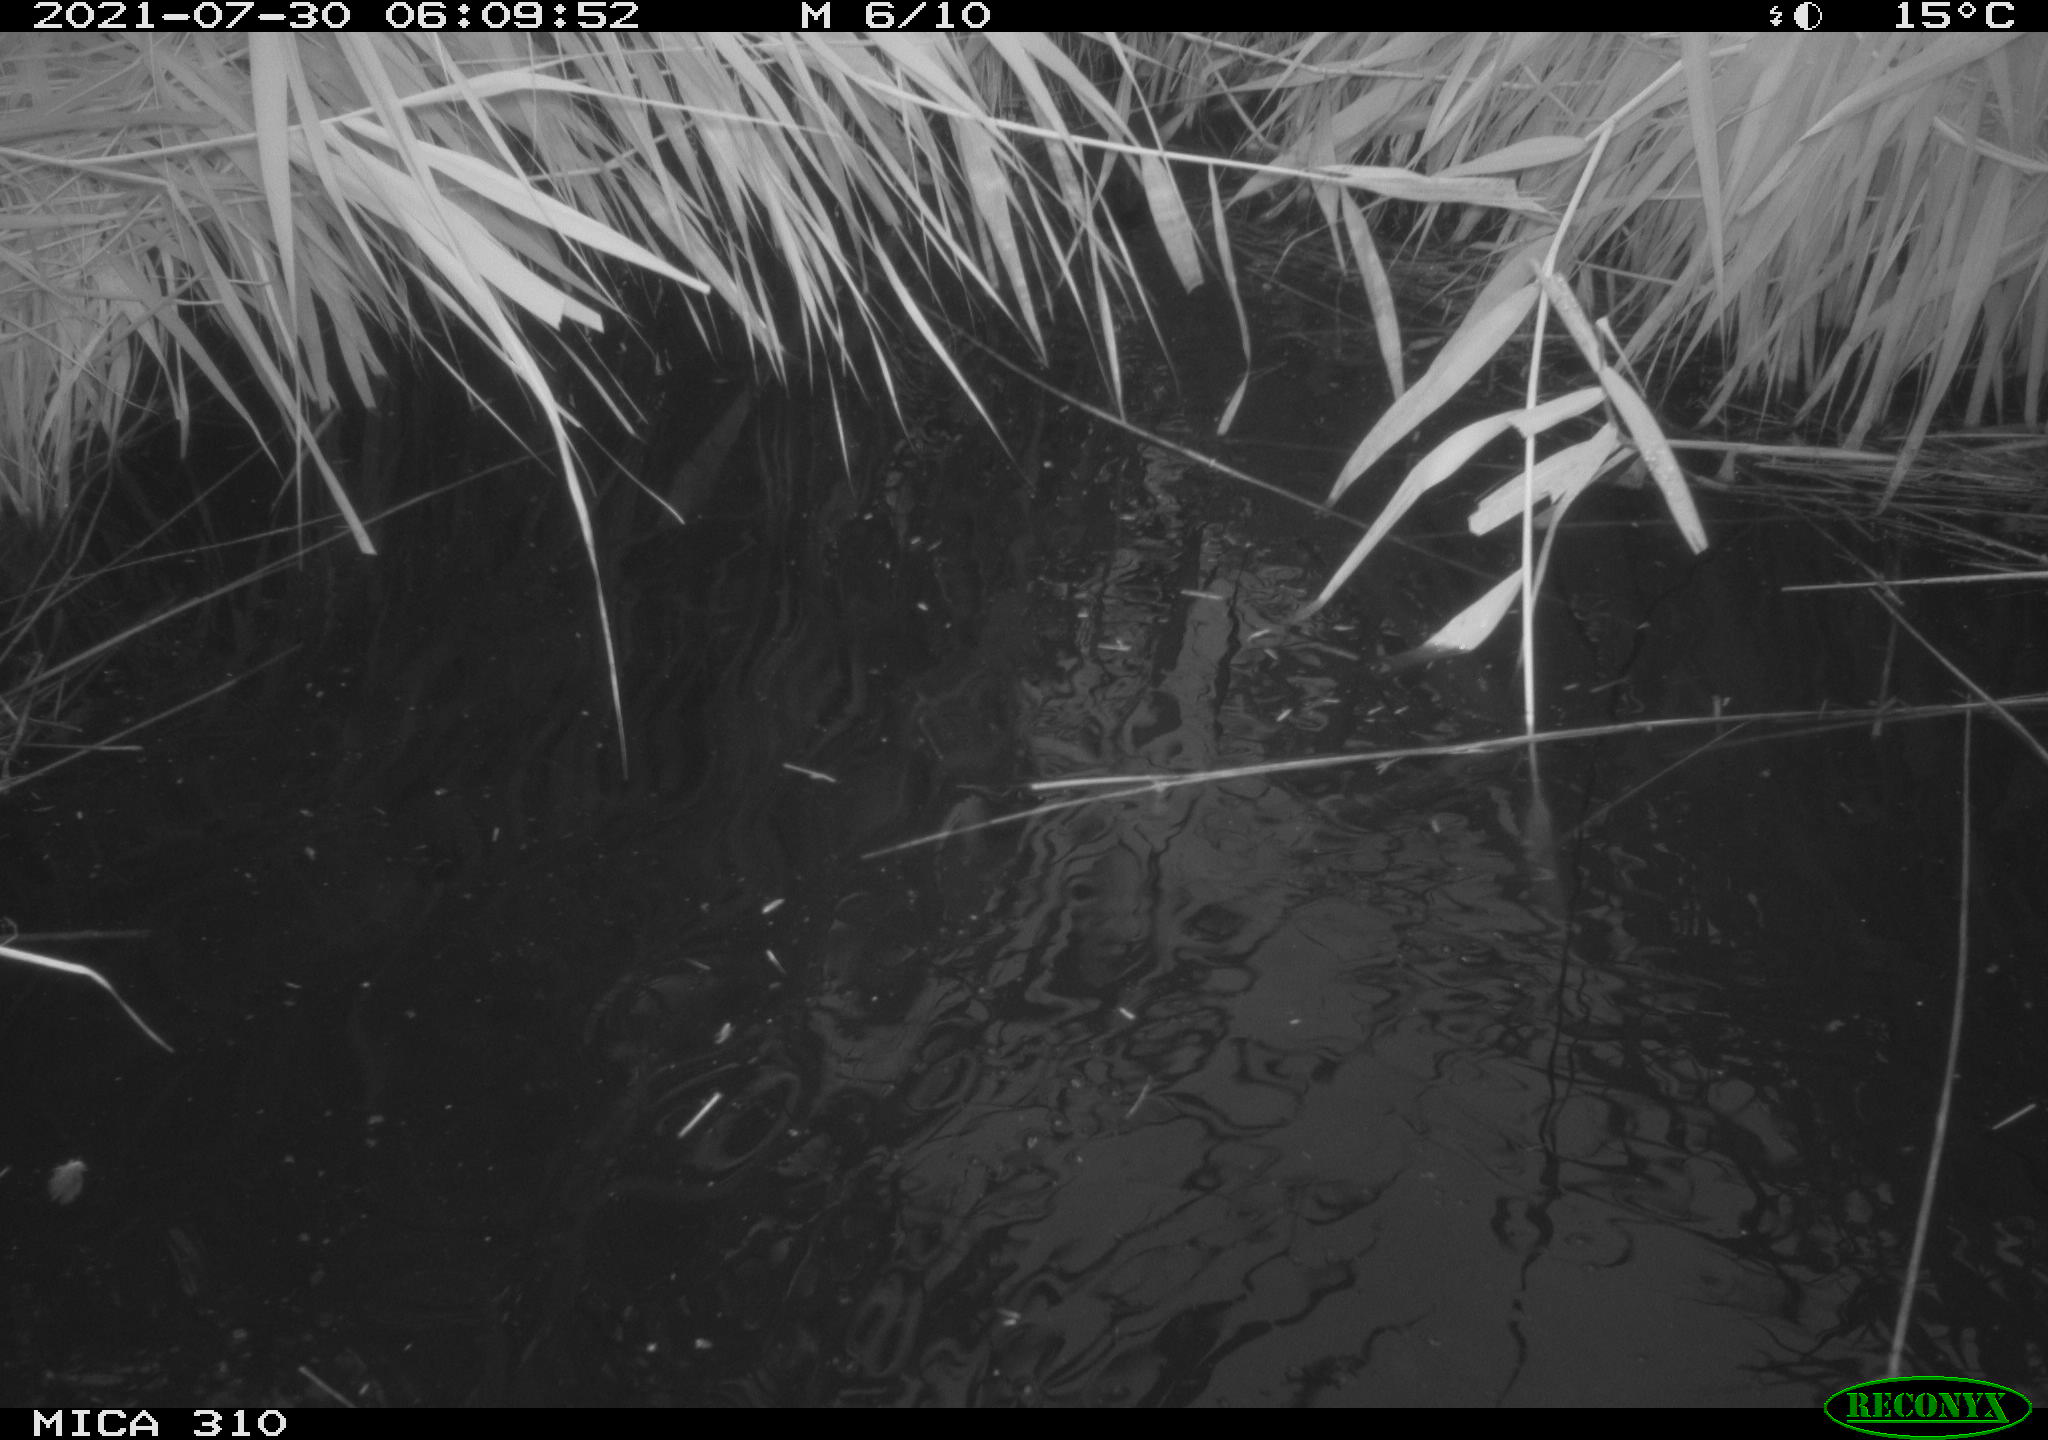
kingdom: Animalia
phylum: Chordata
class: Aves
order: Anseriformes
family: Anatidae
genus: Anas
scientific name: Anas platyrhynchos
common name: Mallard
